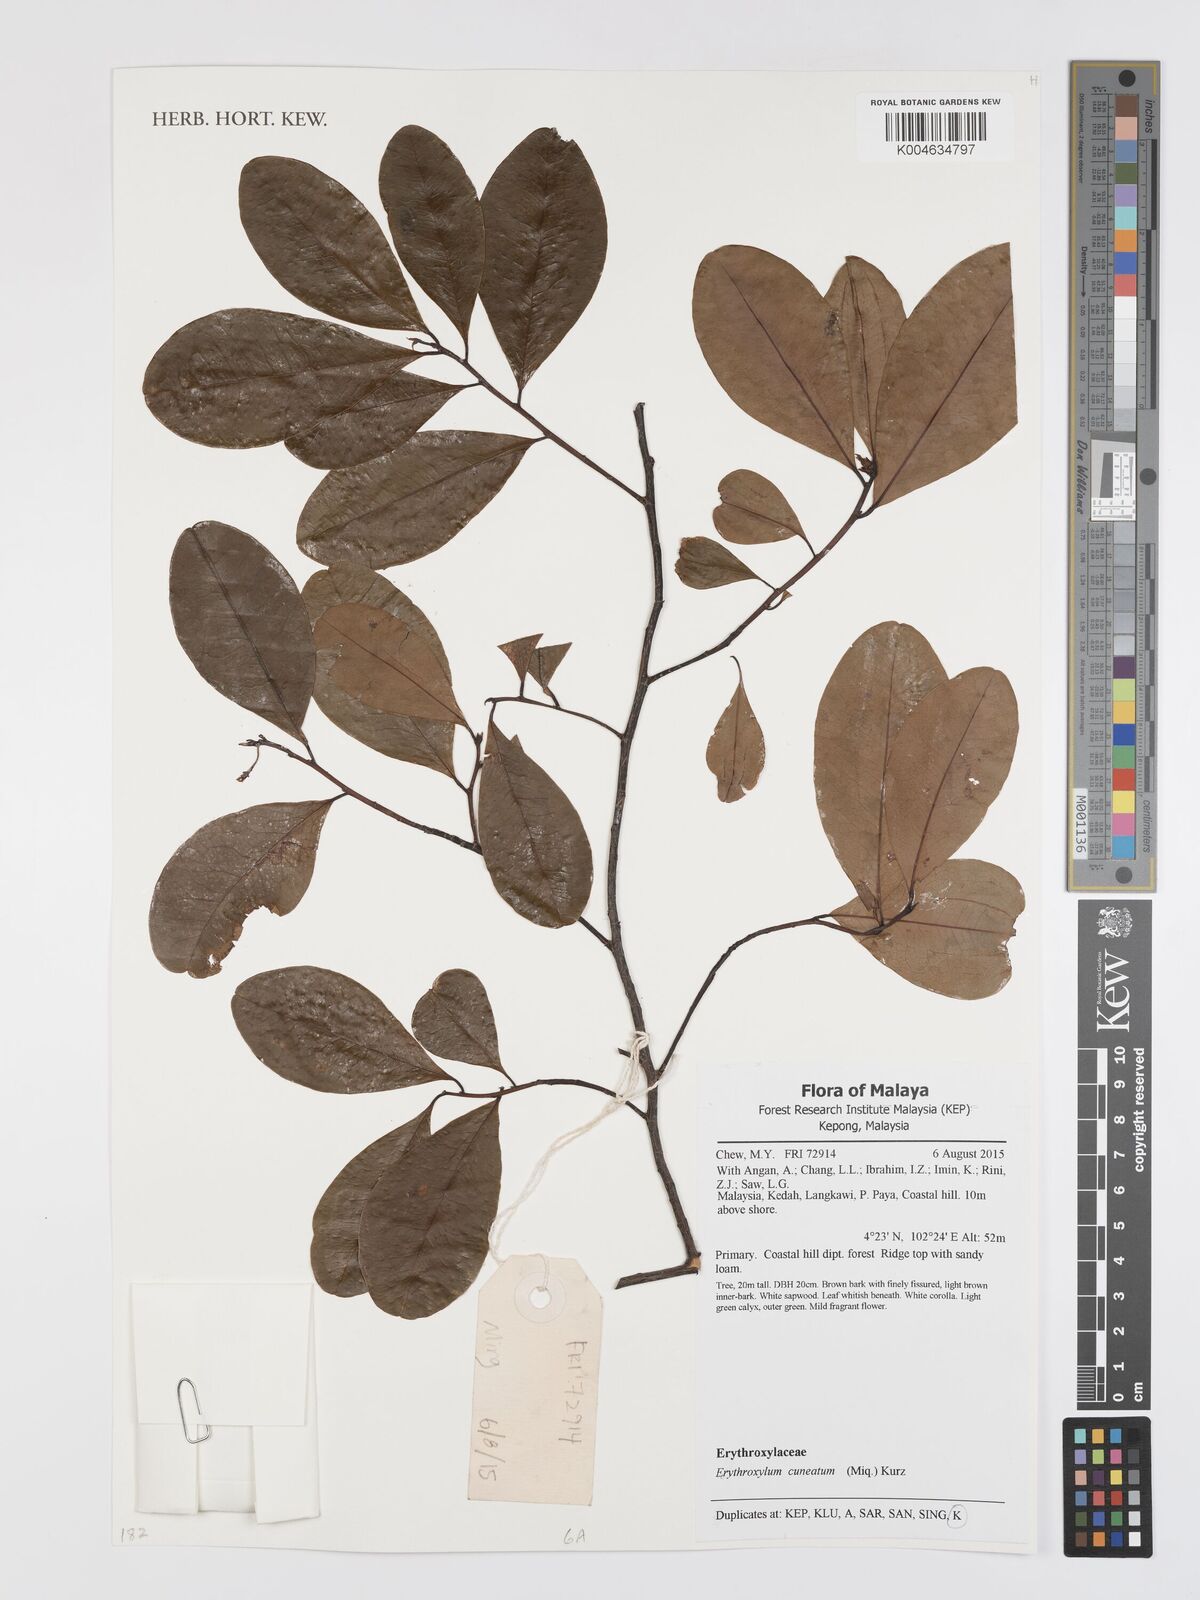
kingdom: Plantae
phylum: Tracheophyta
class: Magnoliopsida
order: Malpighiales
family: Erythroxylaceae
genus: Erythroxylum
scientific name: Erythroxylum cuneatum
